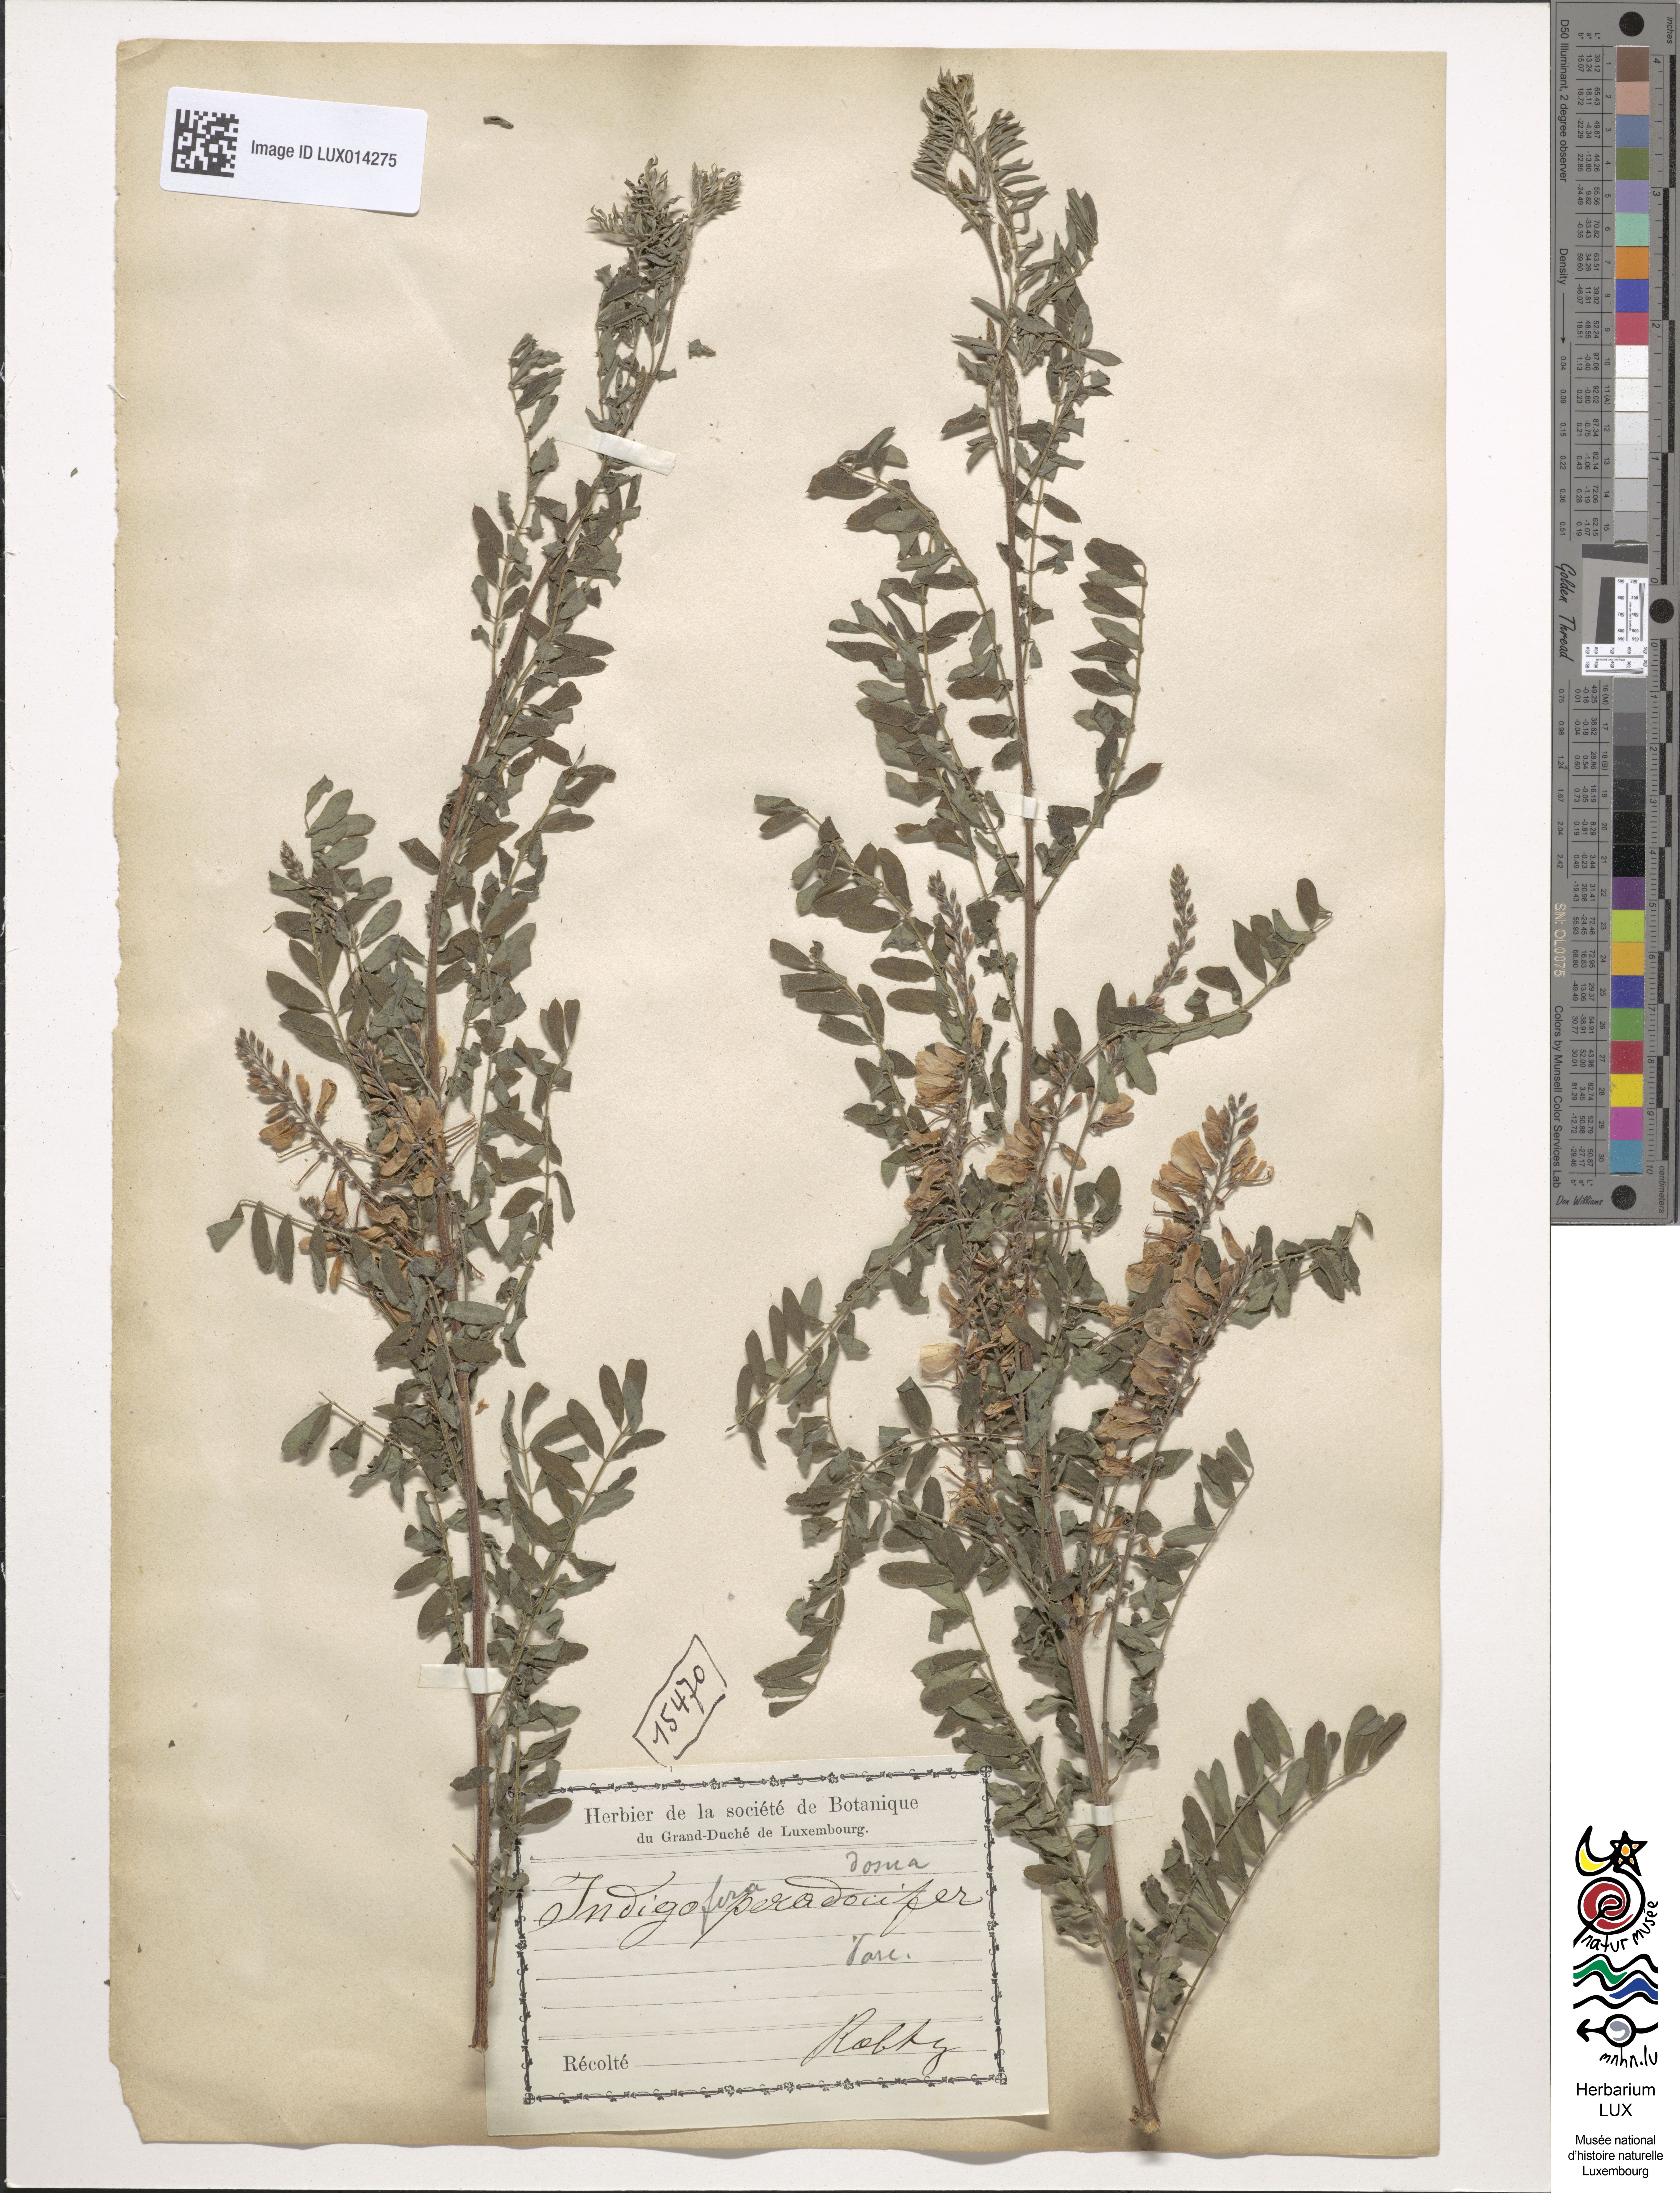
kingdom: Plantae
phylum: Tracheophyta
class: Magnoliopsida
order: Fabales
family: Fabaceae
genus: Indigofera
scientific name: Indigofera heterantha
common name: Himalayan indigo
